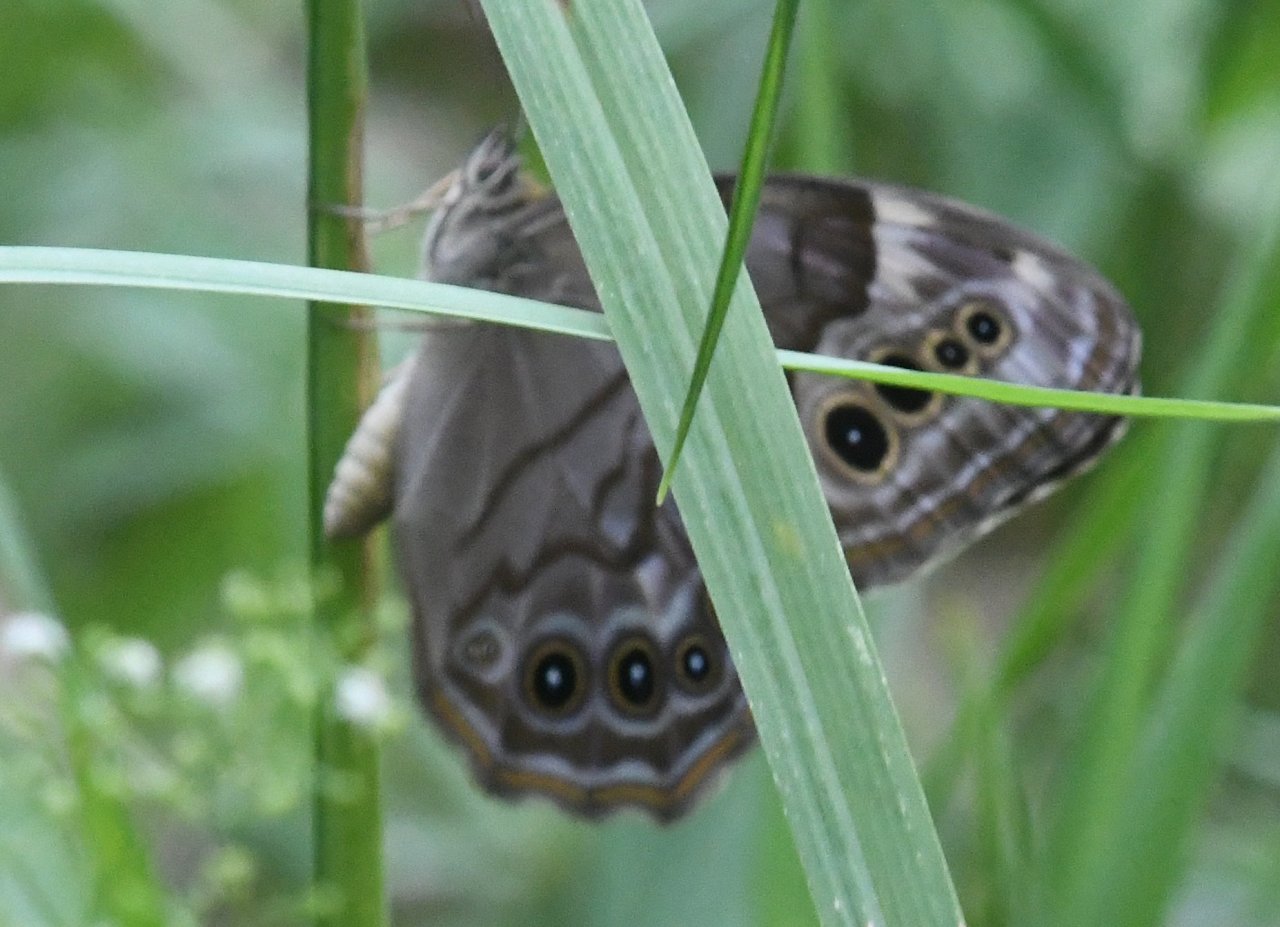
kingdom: Animalia
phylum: Arthropoda
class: Insecta
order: Lepidoptera
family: Nymphalidae
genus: Lethe
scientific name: Lethe anthedon
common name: Northern Pearly-Eye
